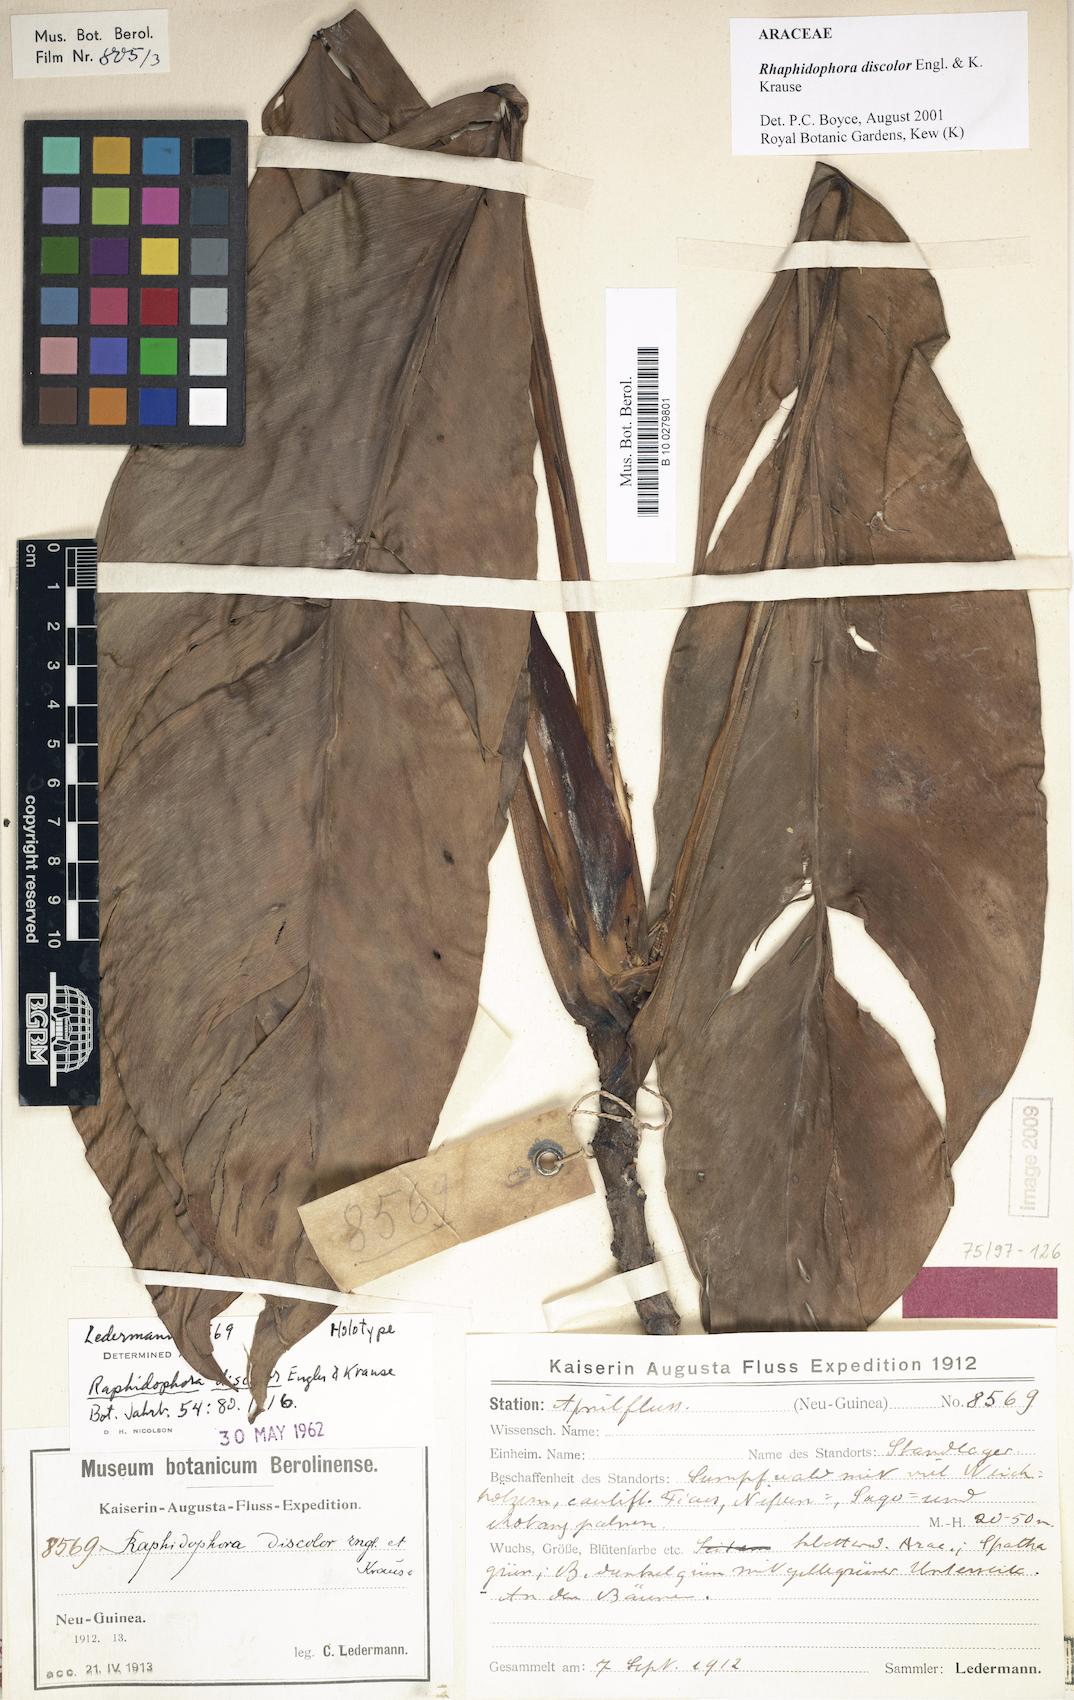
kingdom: Plantae
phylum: Tracheophyta
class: Liliopsida
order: Alismatales
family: Araceae
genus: Rhaphidophora
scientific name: Rhaphidophora discolor
